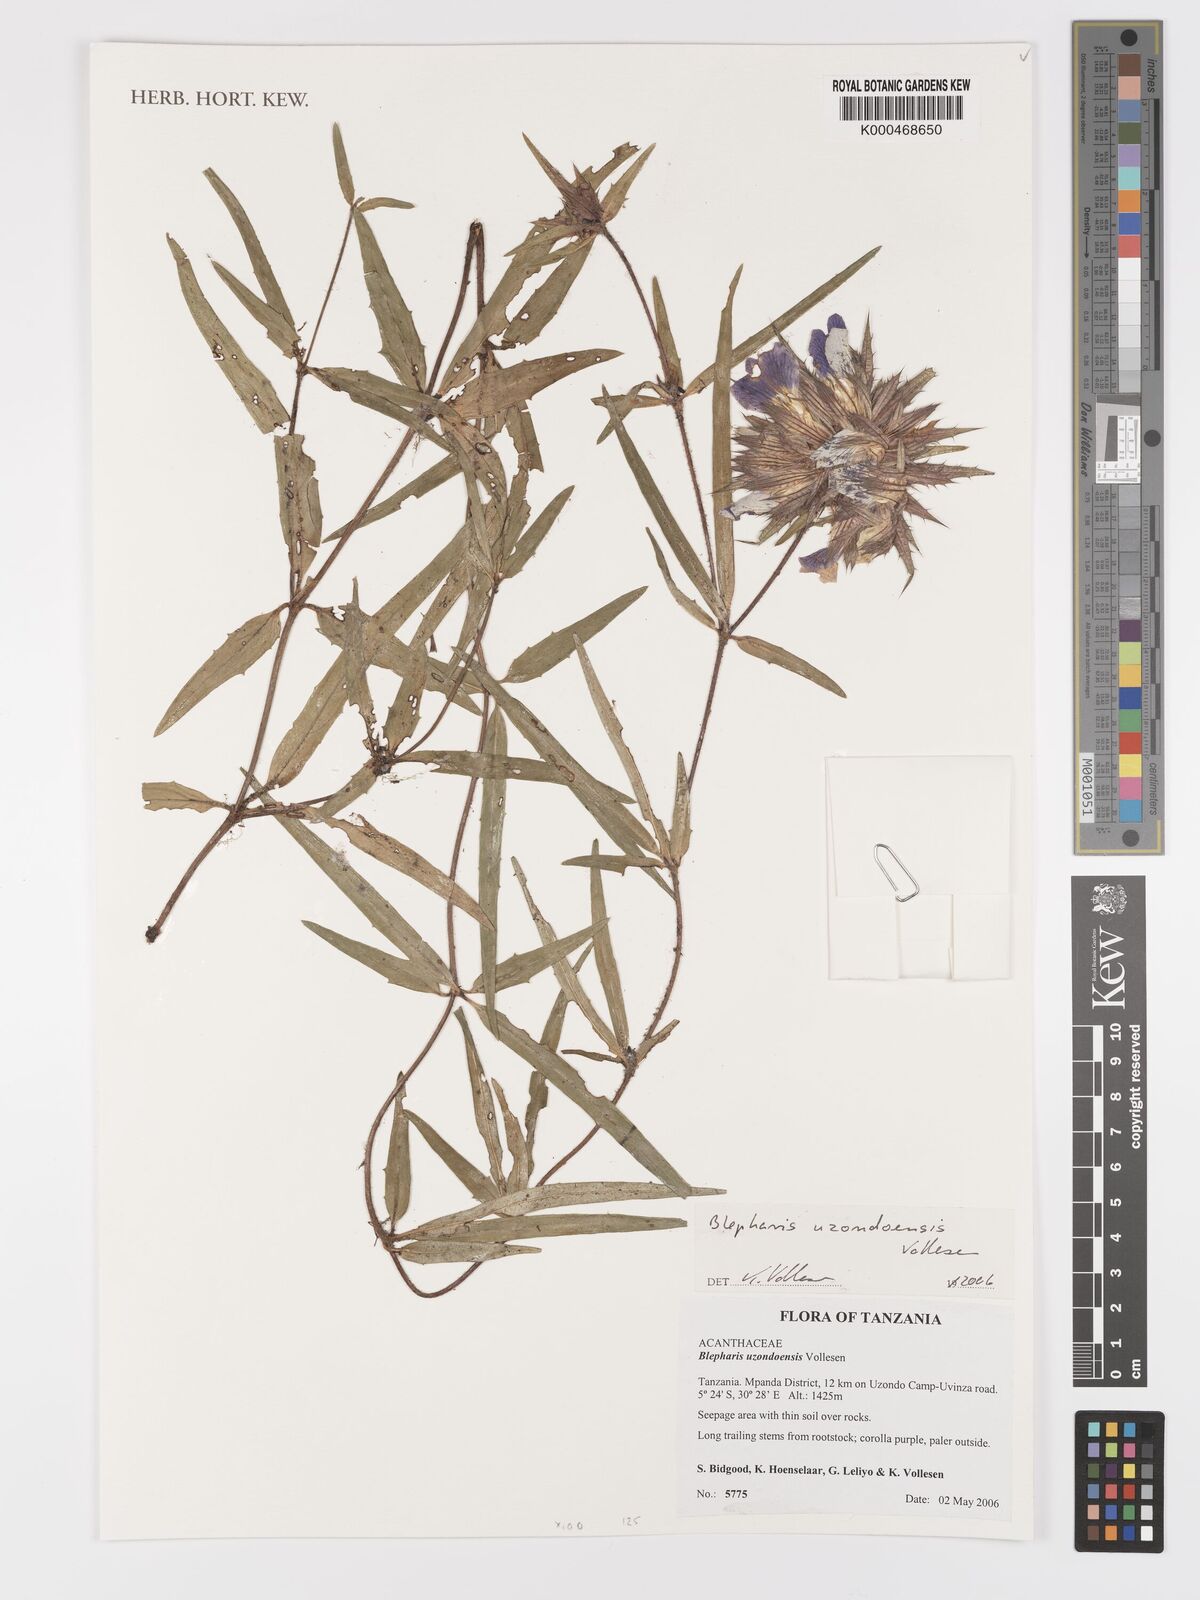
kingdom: Plantae
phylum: Tracheophyta
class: Magnoliopsida
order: Lamiales
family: Acanthaceae
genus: Blepharis
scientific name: Blepharis uzondoensis
